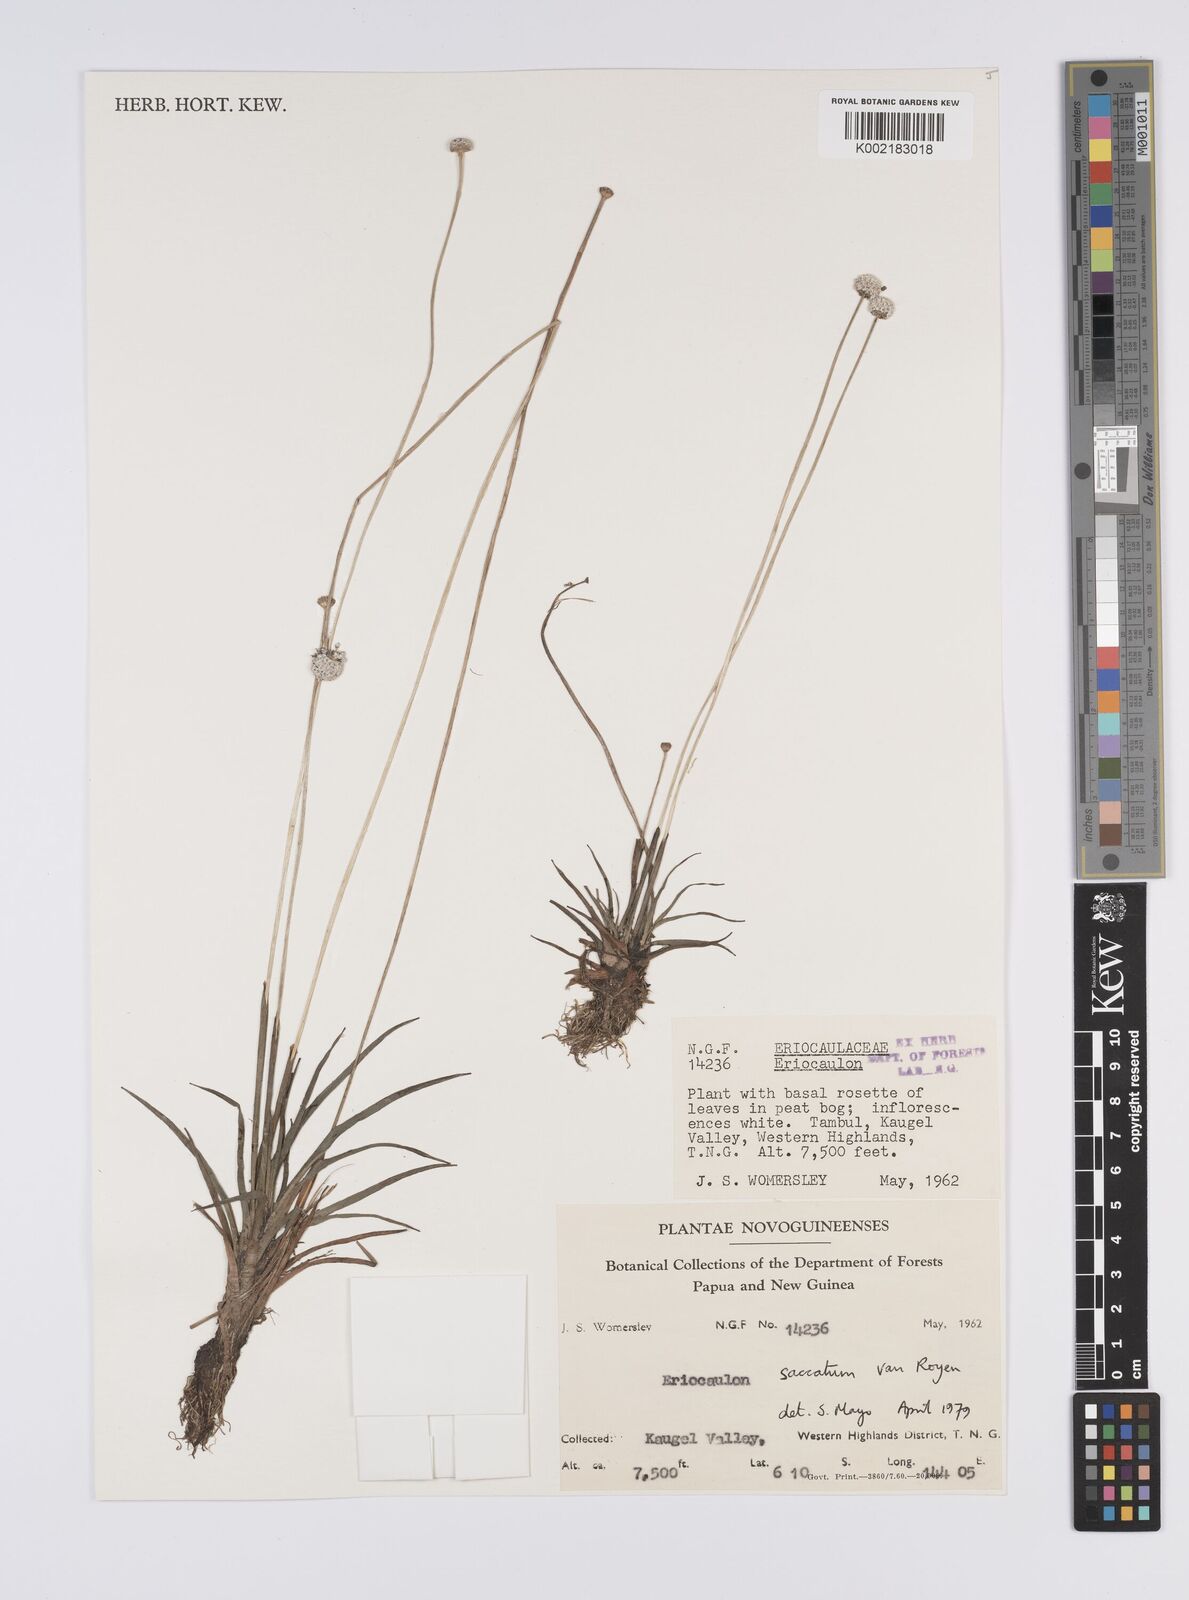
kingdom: Plantae
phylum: Tracheophyta
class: Liliopsida
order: Poales
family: Eriocaulaceae
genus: Eriocaulon
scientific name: Eriocaulon saccatum
